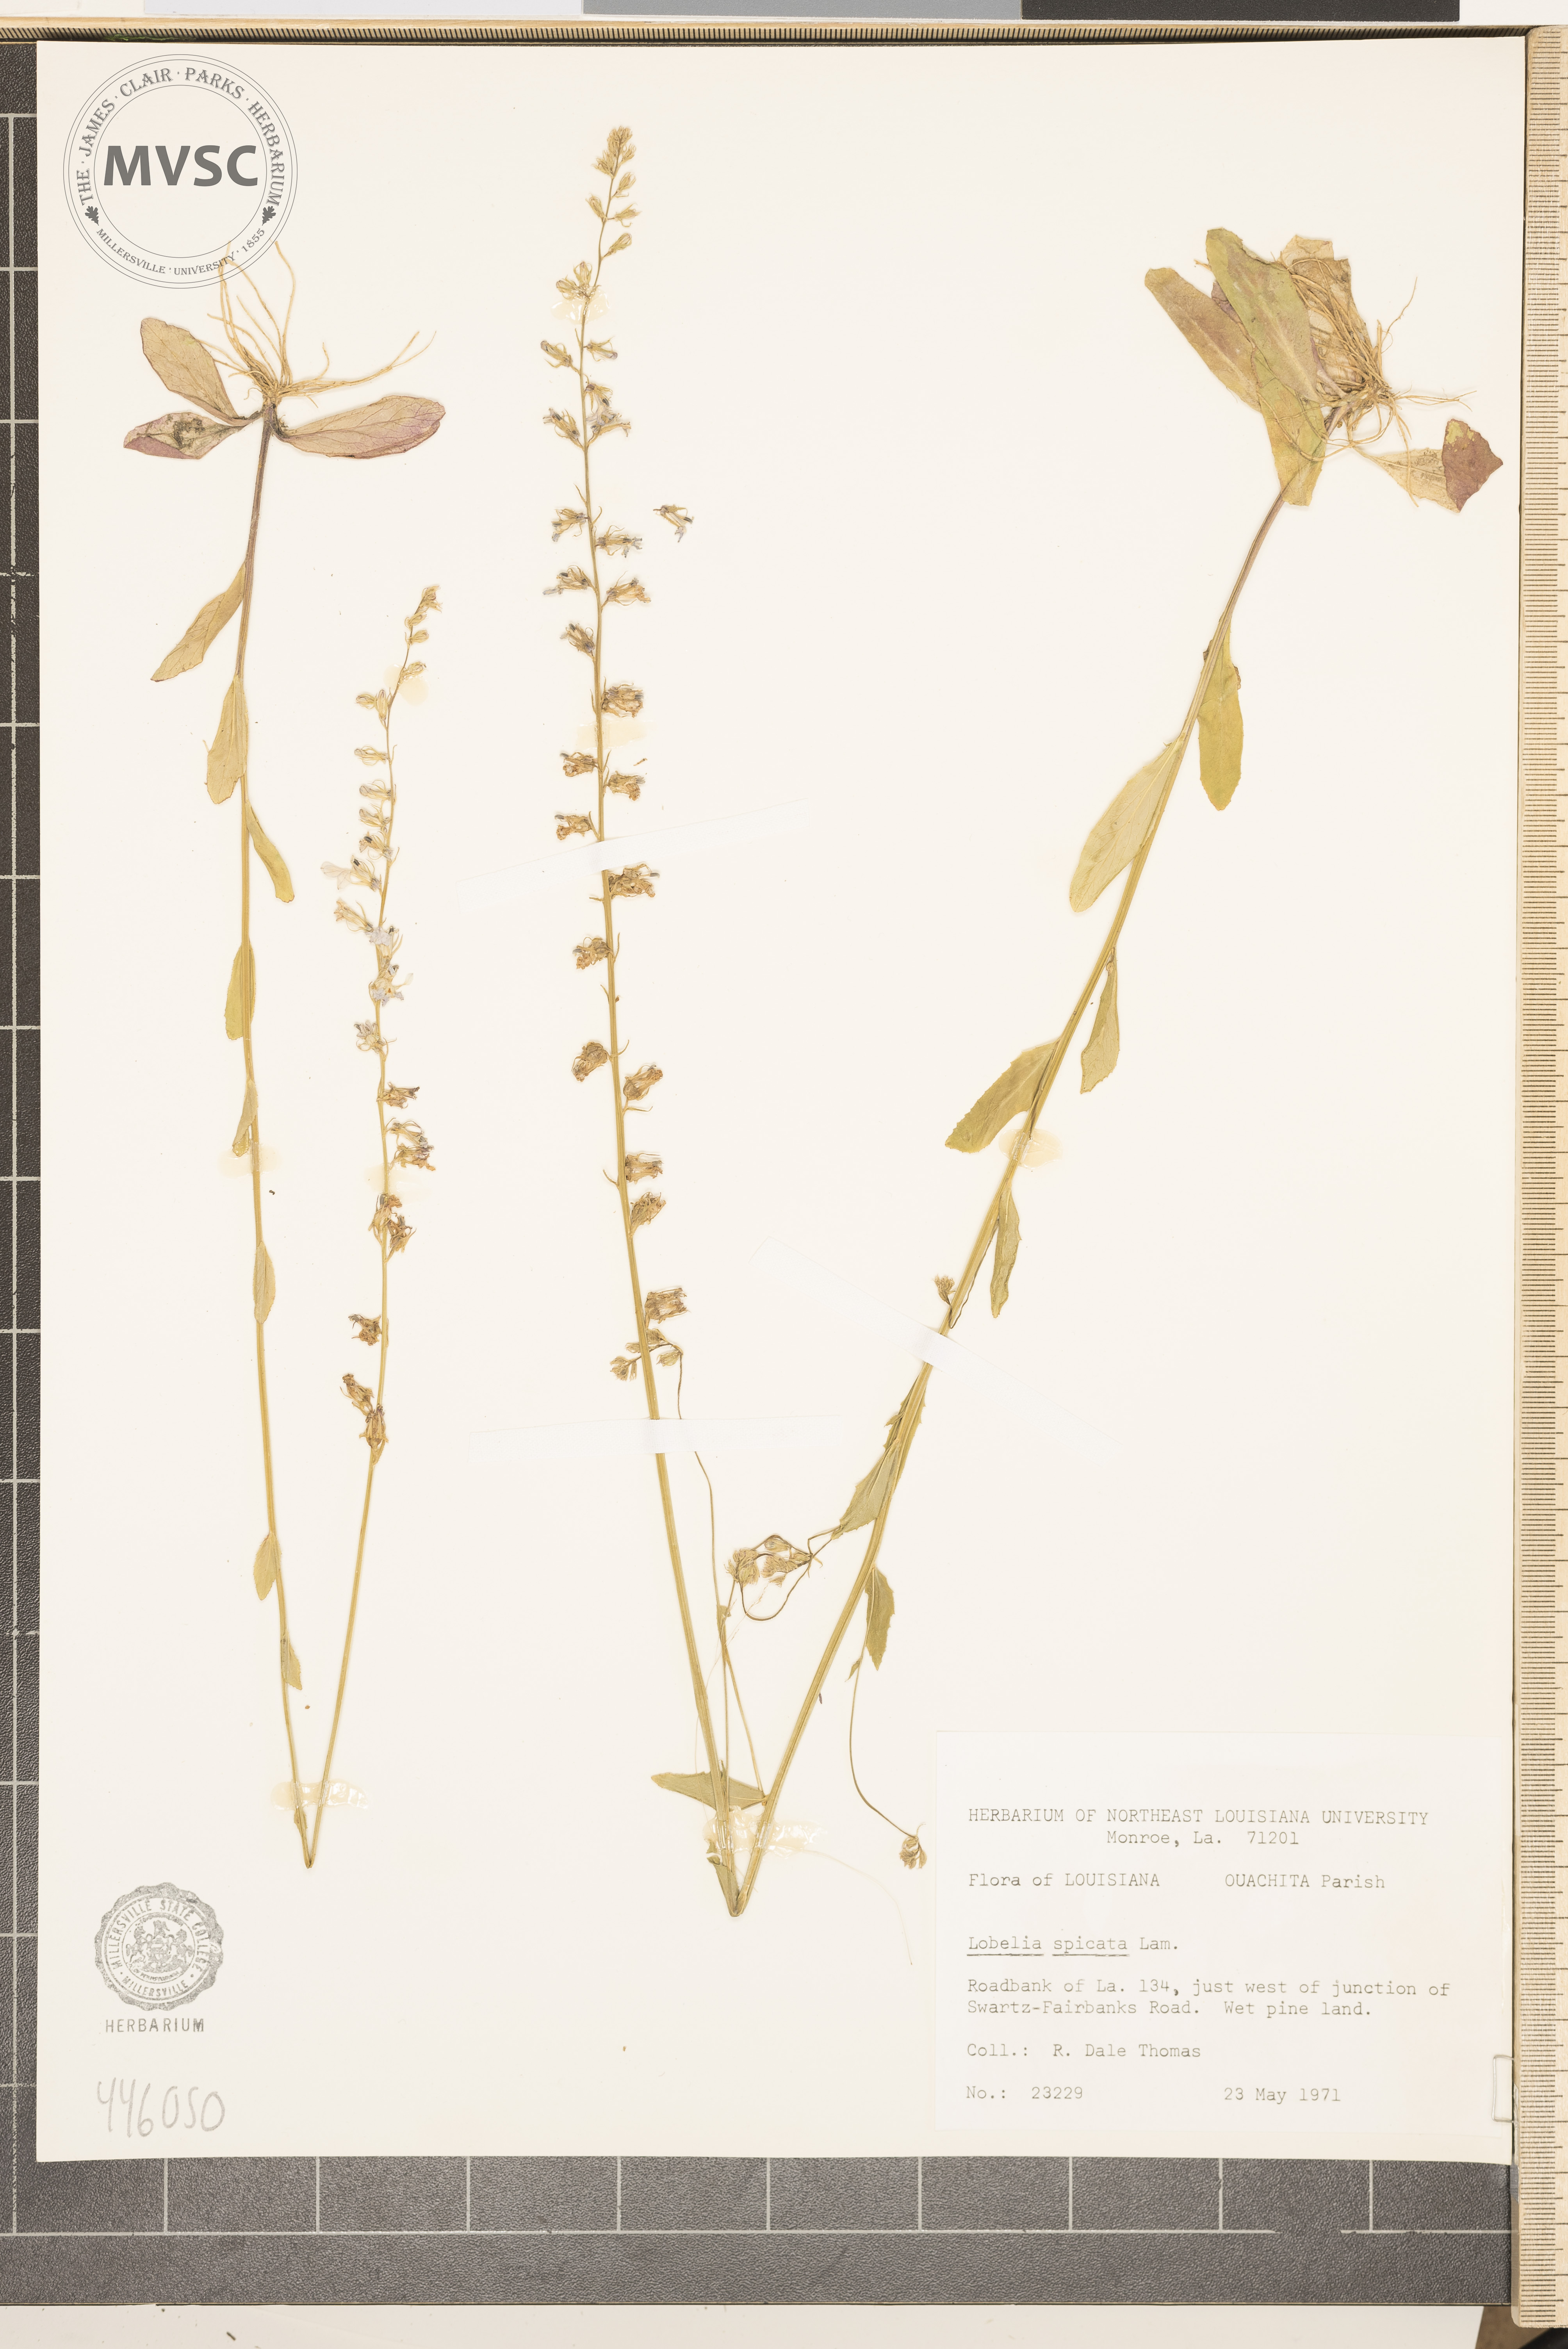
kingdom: Plantae
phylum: Tracheophyta
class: Magnoliopsida
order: Asterales
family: Campanulaceae
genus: Lobelia
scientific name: Lobelia spicata
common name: Pale-spike lobelia
